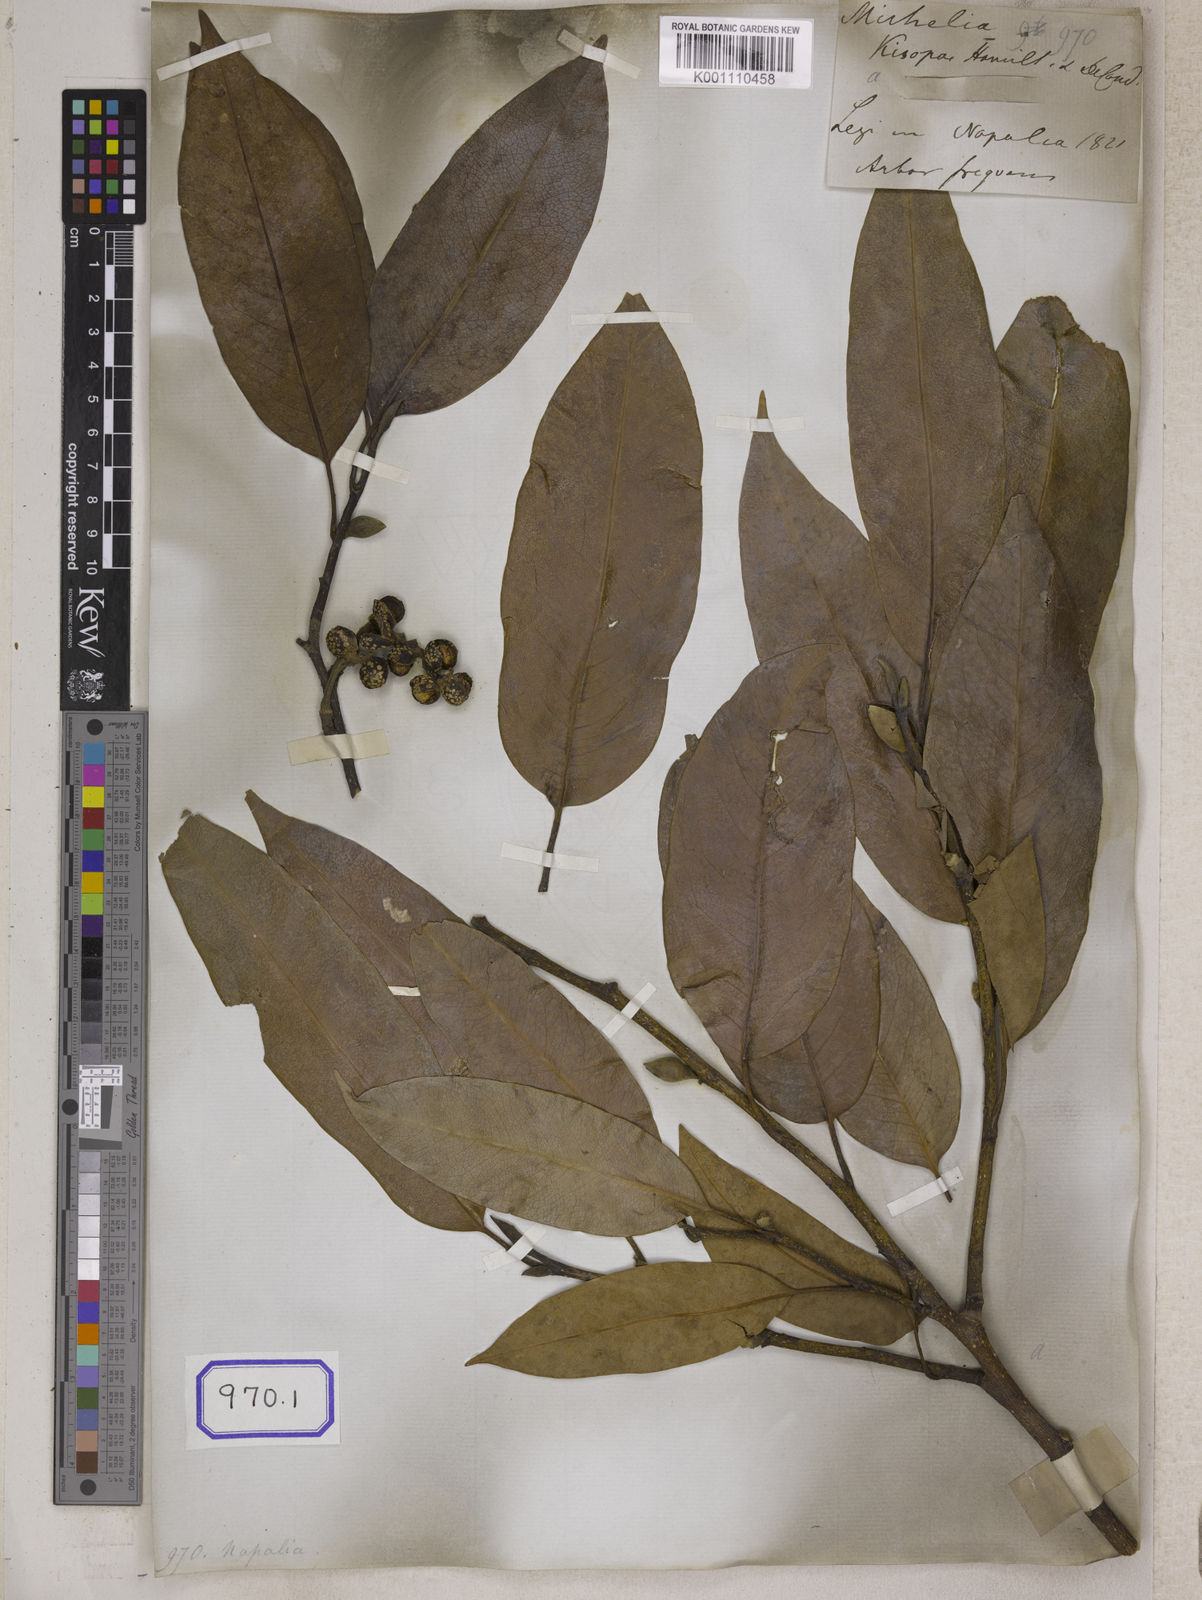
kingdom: Plantae
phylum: Tracheophyta
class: Magnoliopsida
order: Magnoliales
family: Magnoliaceae
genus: Michelia
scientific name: Michelia
